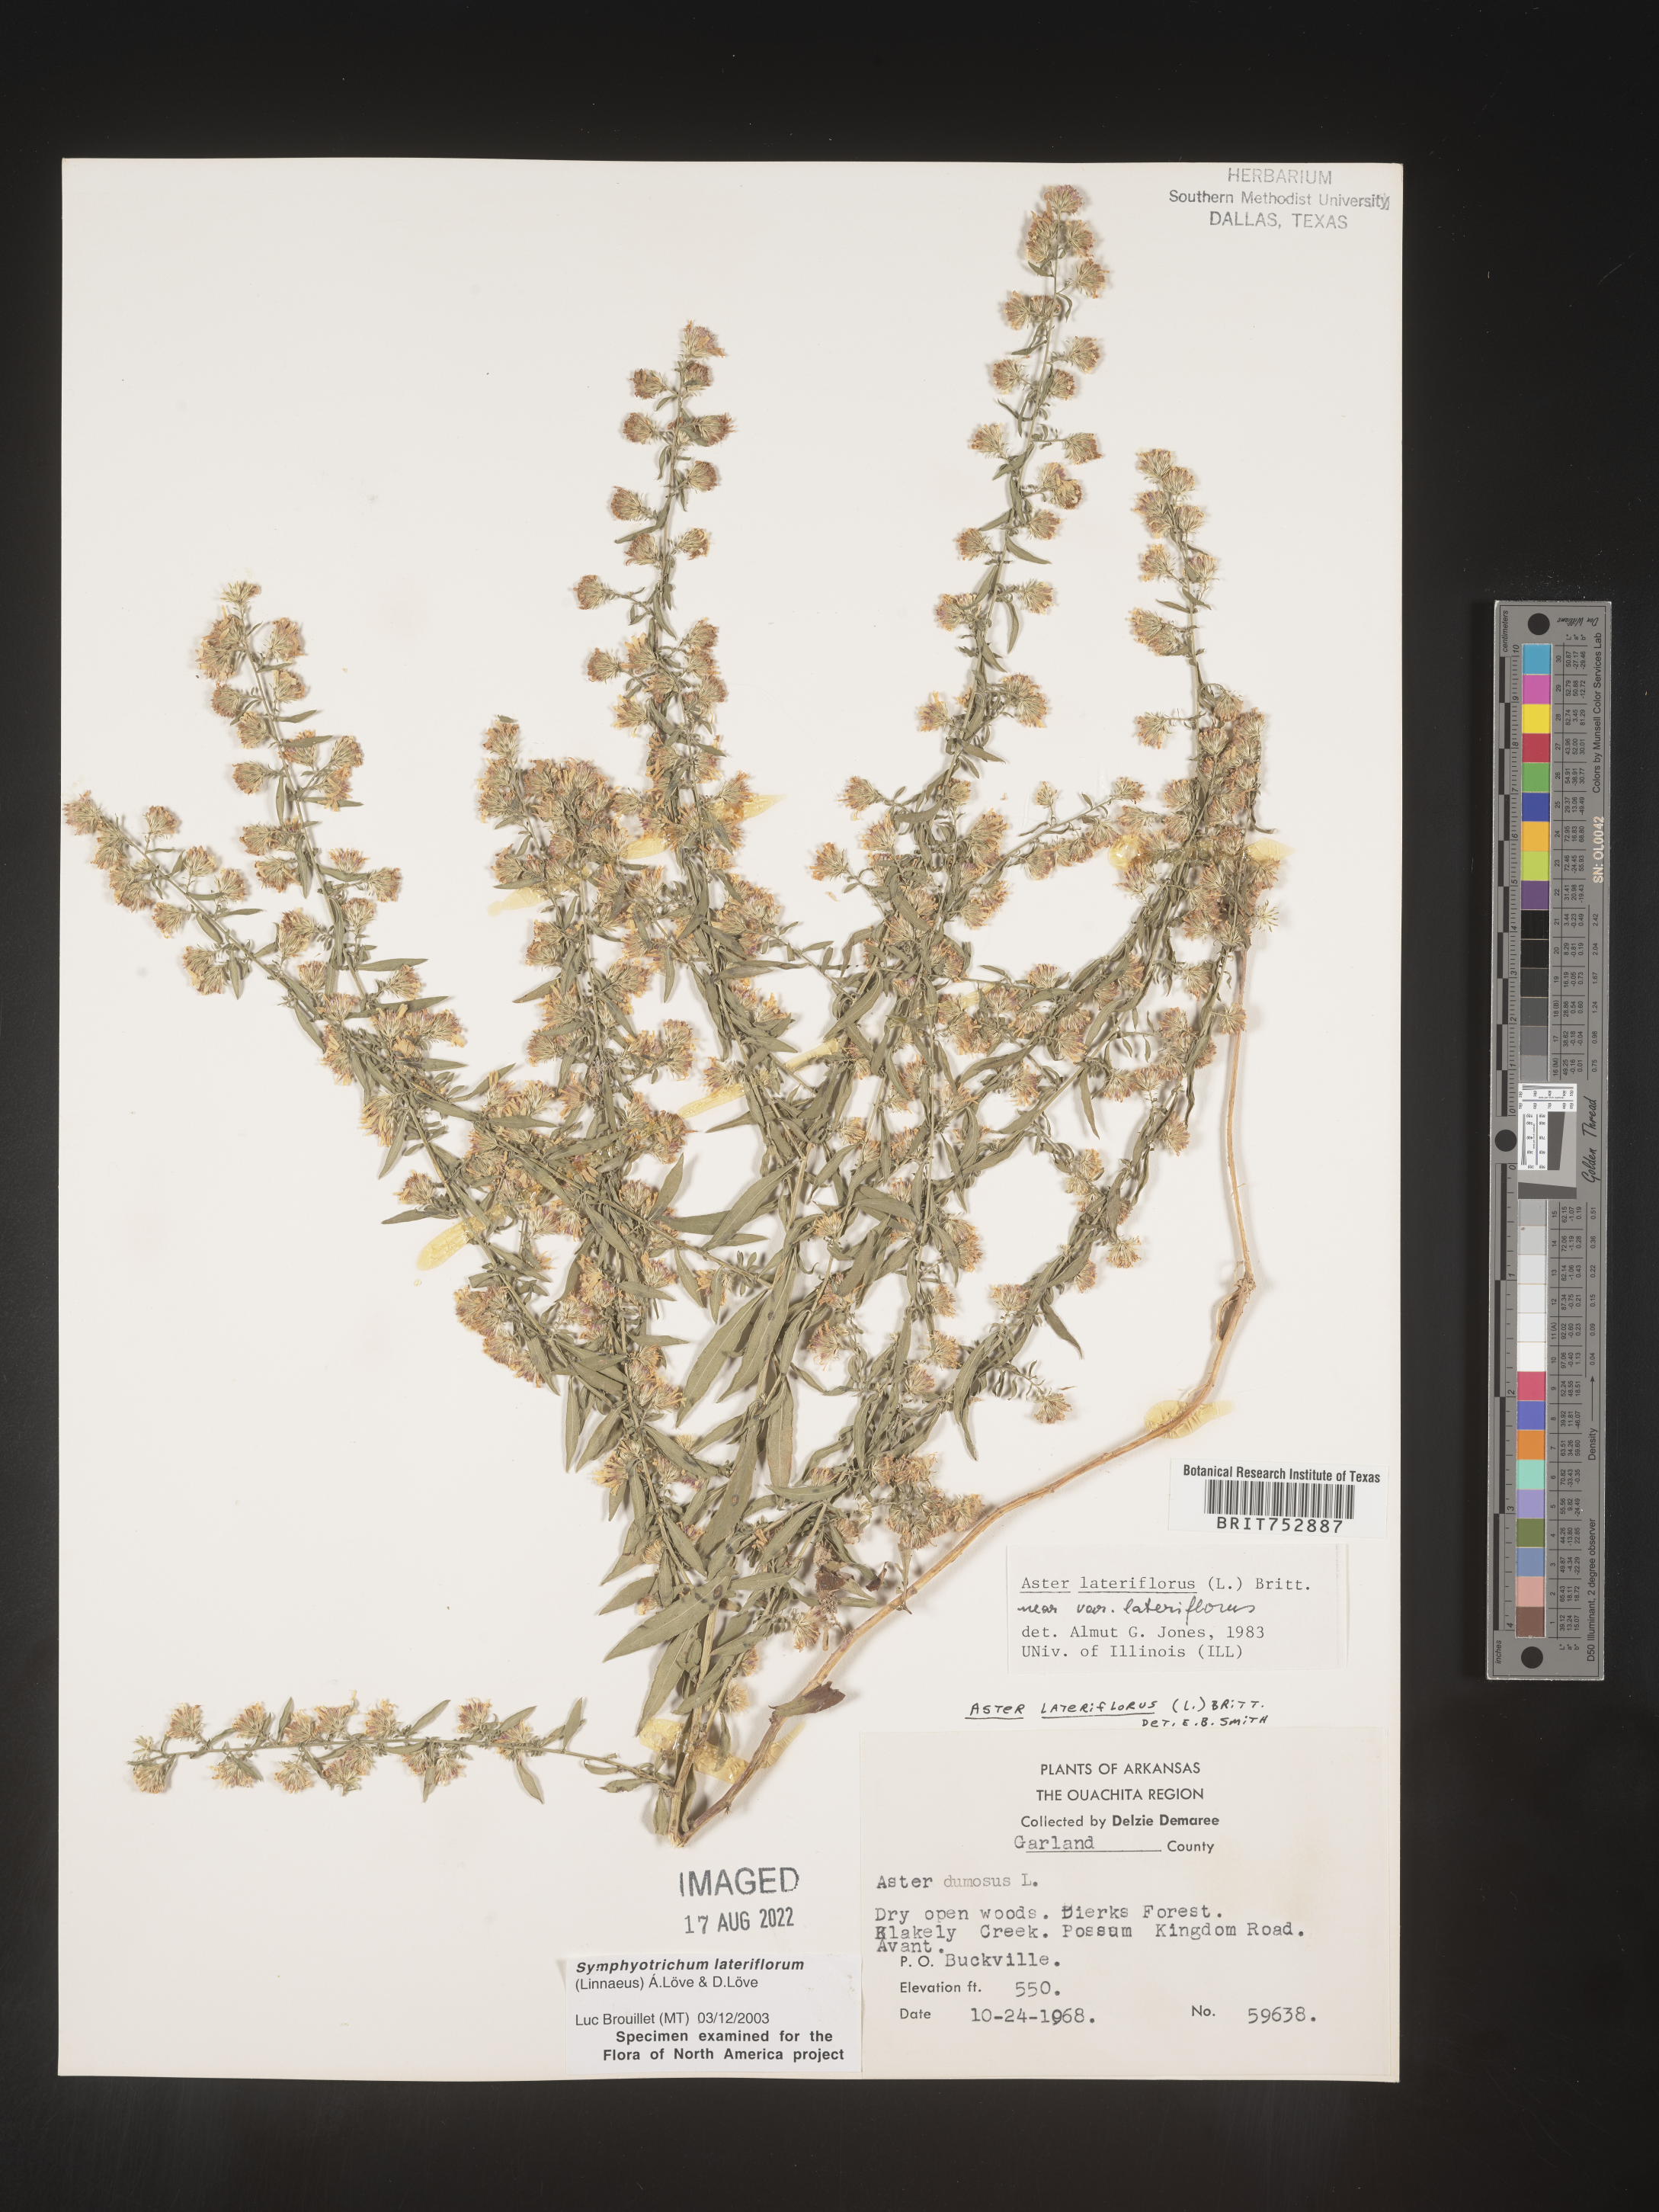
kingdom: Plantae
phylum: Tracheophyta
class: Magnoliopsida
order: Asterales
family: Asteraceae
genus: Symphyotrichum
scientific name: Symphyotrichum lateriflorum
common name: Calico aster
